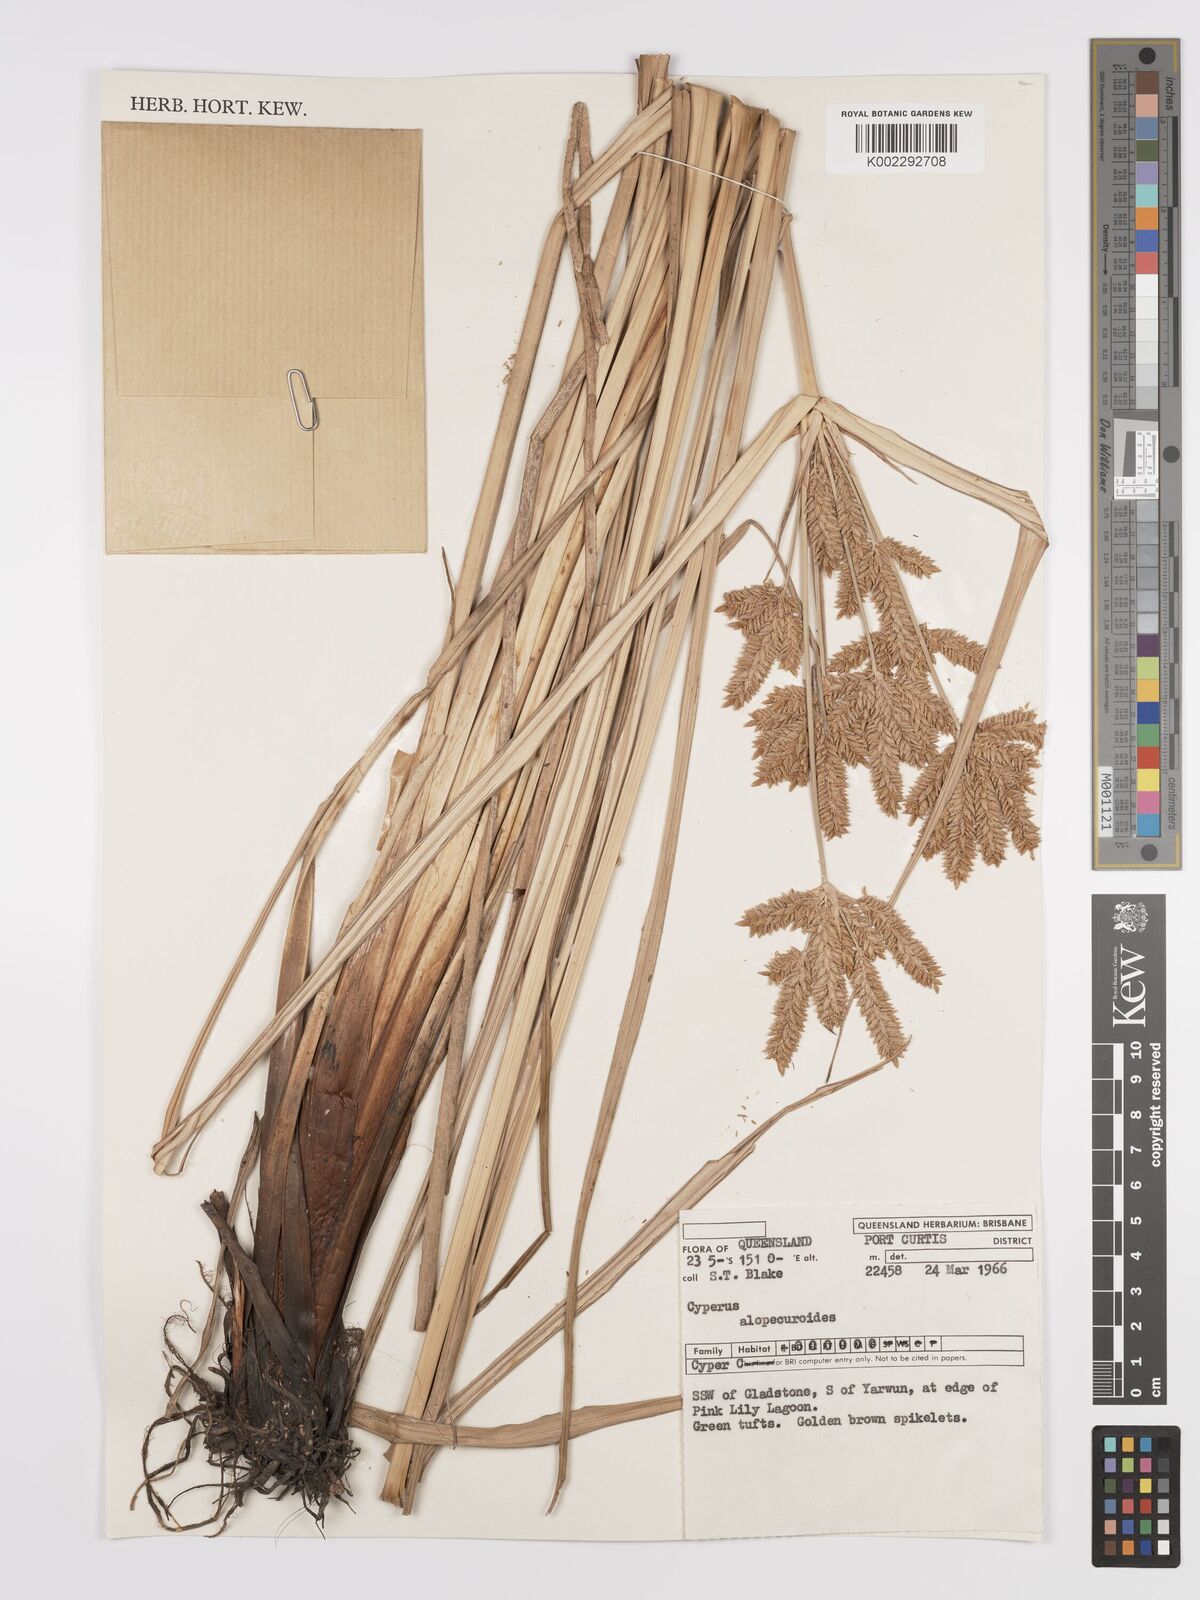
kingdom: Plantae
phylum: Tracheophyta
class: Liliopsida
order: Poales
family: Cyperaceae
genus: Cyperus
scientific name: Cyperus alopecuroides
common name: Foxtail flatsedge
